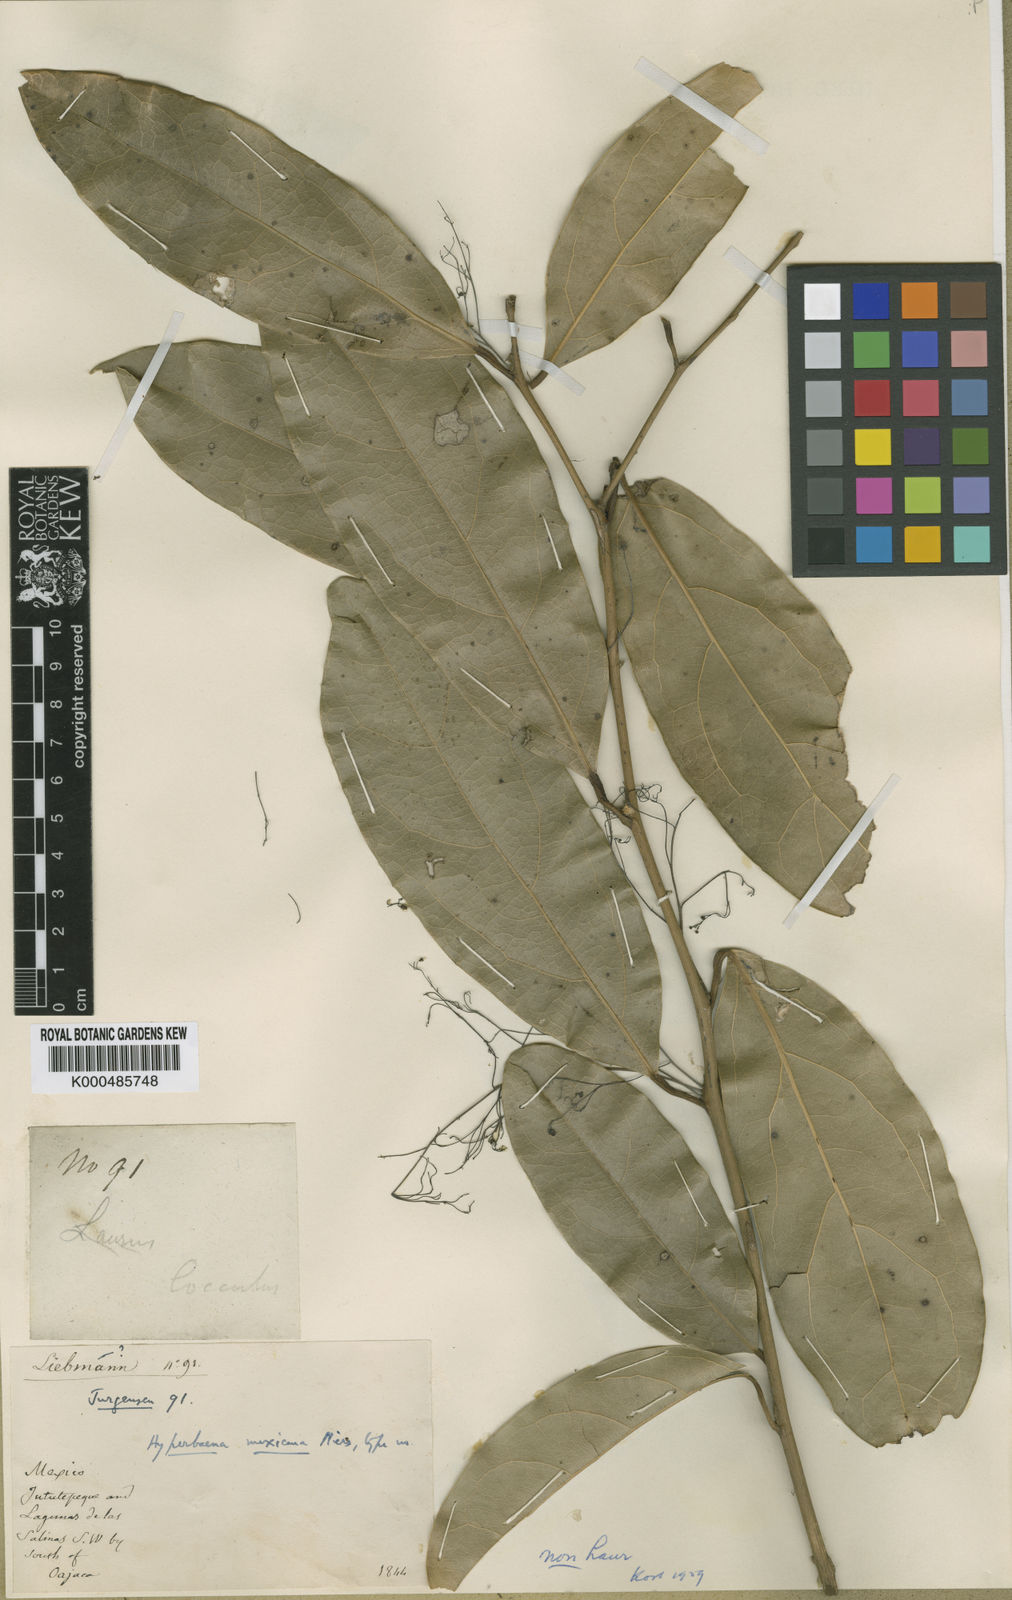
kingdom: Plantae
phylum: Tracheophyta
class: Magnoliopsida
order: Ranunculales
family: Menispermaceae
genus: Hyperbaena
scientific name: Hyperbaena mexicana
